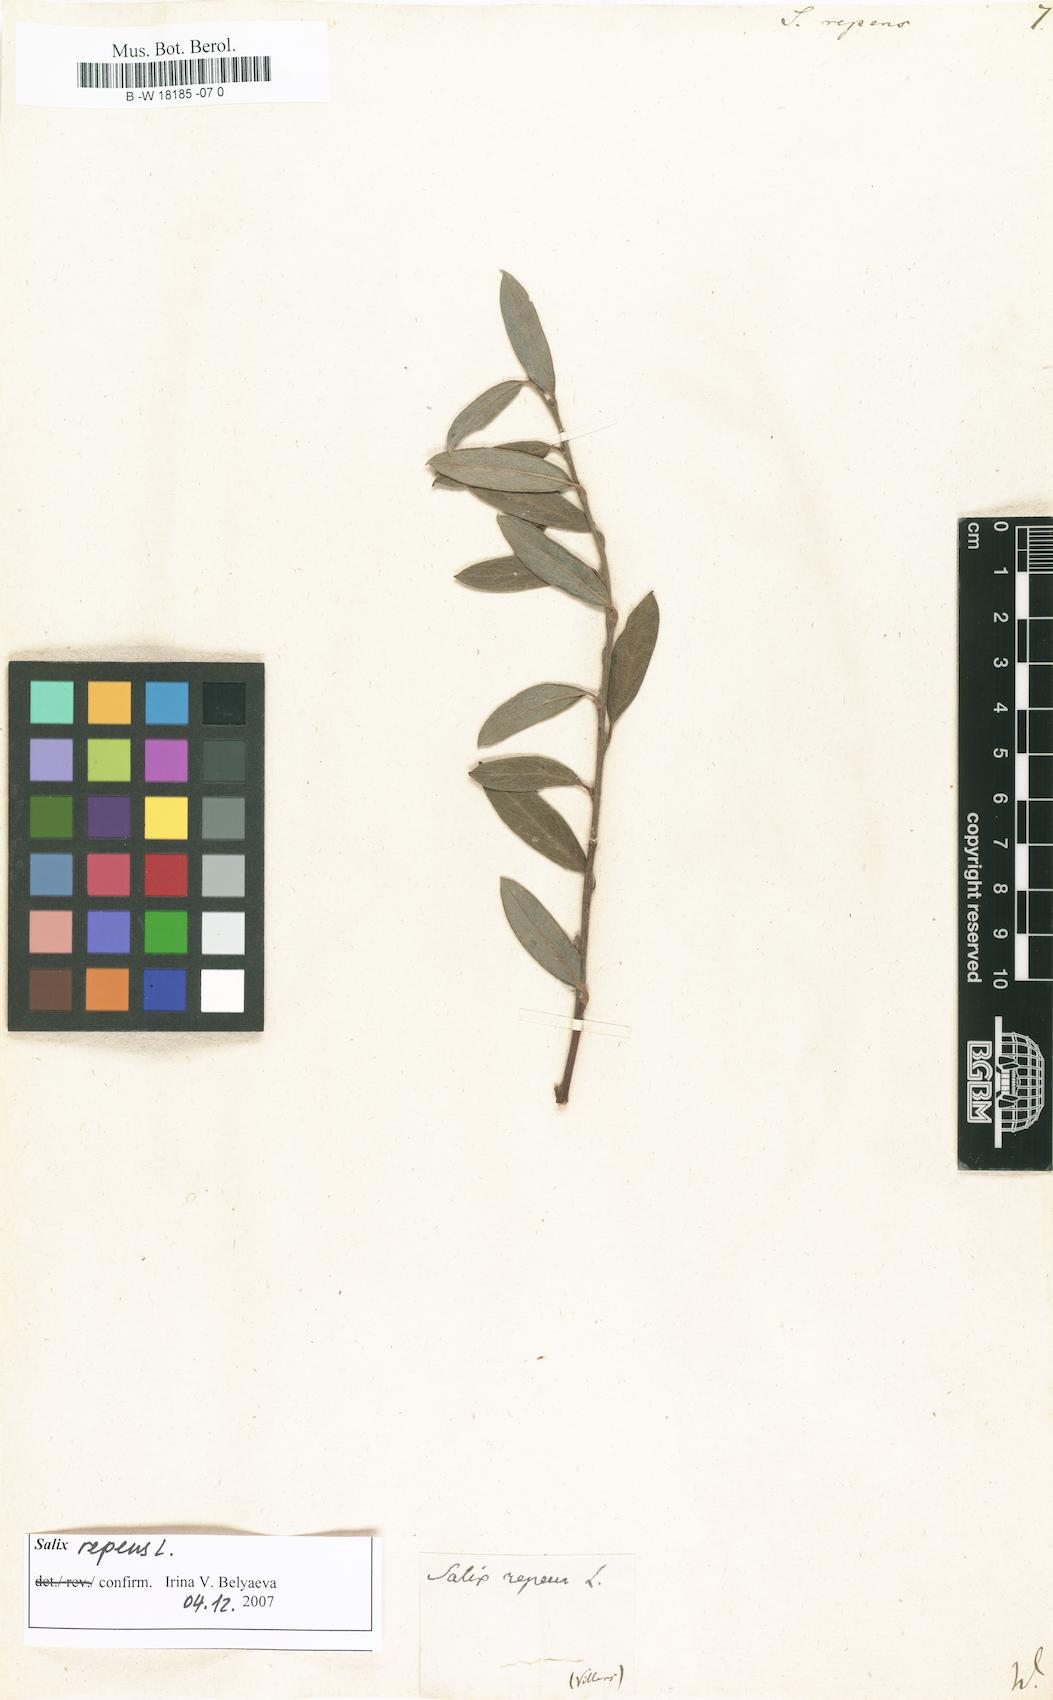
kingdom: Plantae
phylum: Tracheophyta
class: Magnoliopsida
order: Malpighiales
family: Salicaceae
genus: Salix
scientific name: Salix repens
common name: Creeping willow
